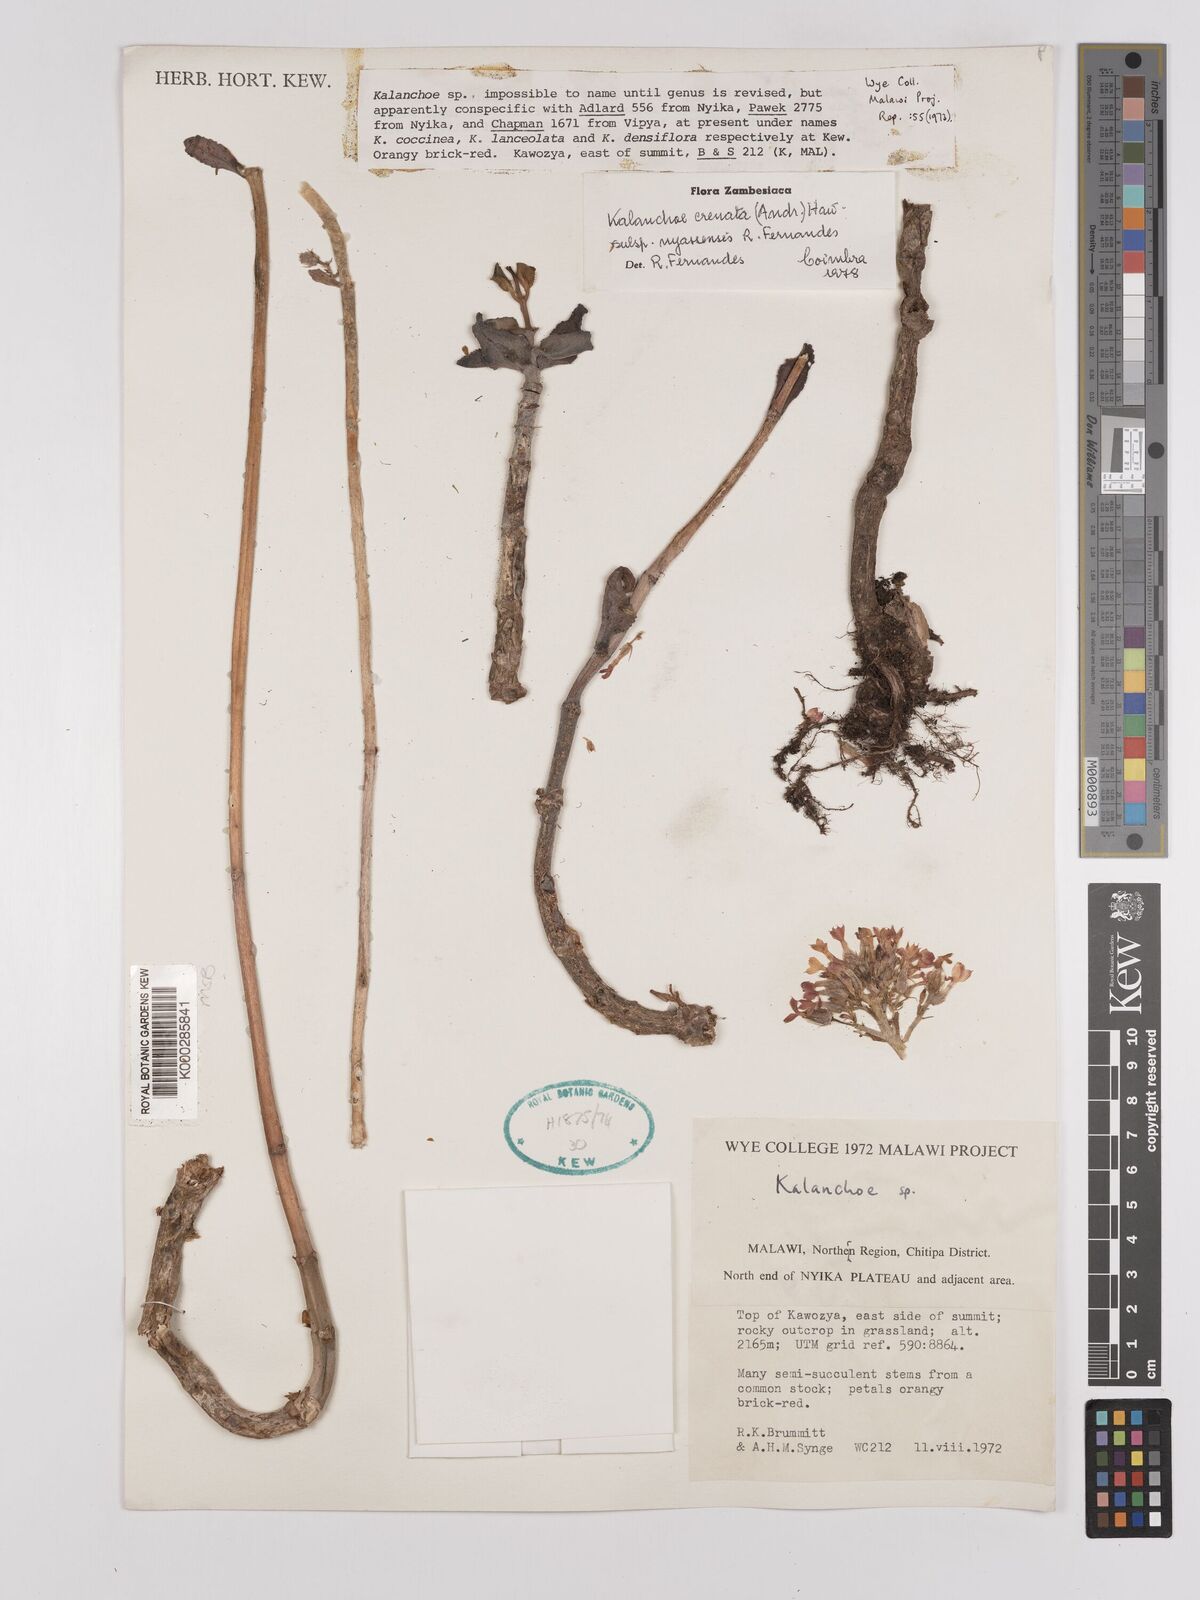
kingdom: Plantae
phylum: Tracheophyta
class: Magnoliopsida
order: Saxifragales
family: Crassulaceae
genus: Kalanchoe
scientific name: Kalanchoe crenata
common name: Neverdie
